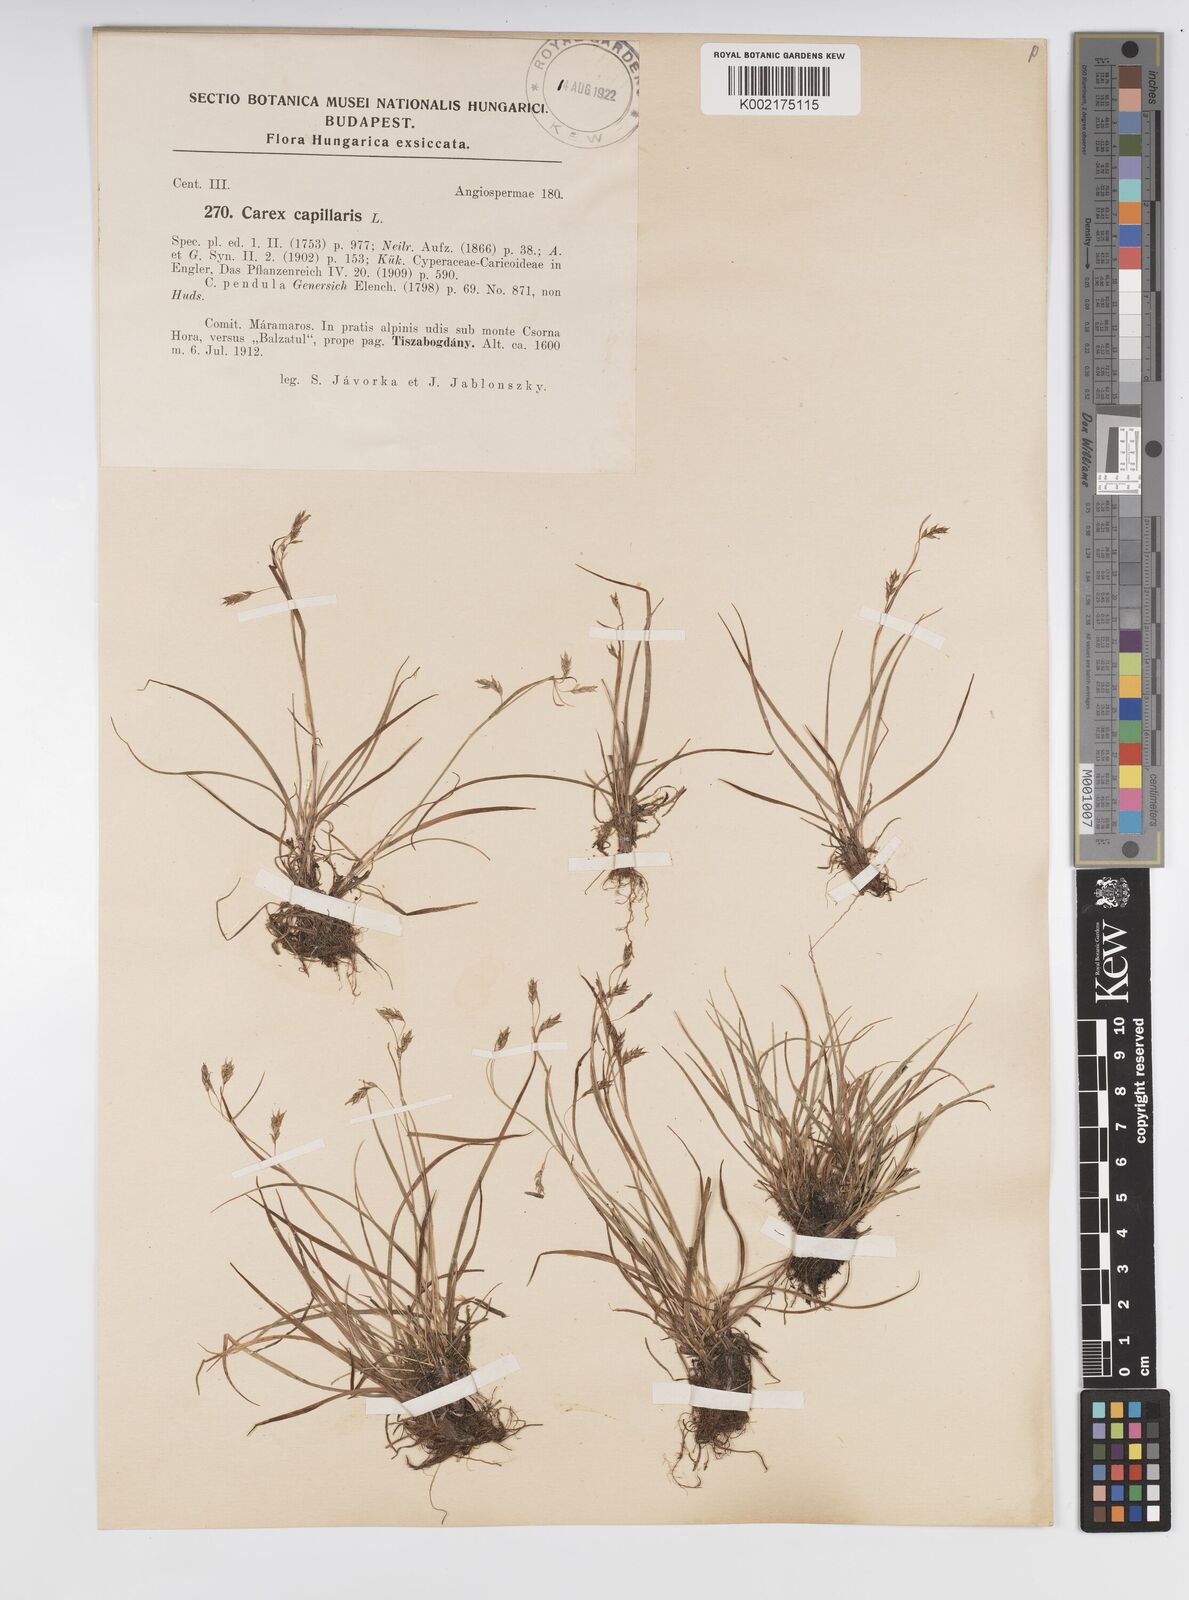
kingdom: Plantae
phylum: Tracheophyta
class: Liliopsida
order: Poales
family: Cyperaceae
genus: Carex
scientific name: Carex capillaris
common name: Hair sedge
